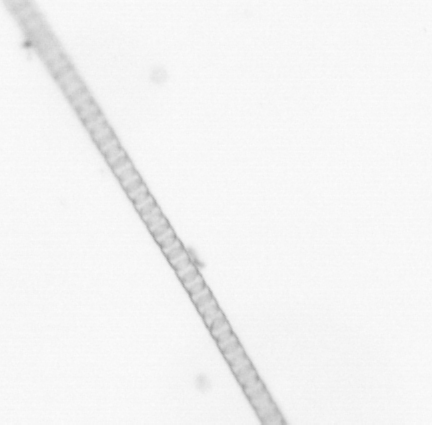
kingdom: Chromista
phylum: Ochrophyta
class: Bacillariophyceae
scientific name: Bacillariophyceae
